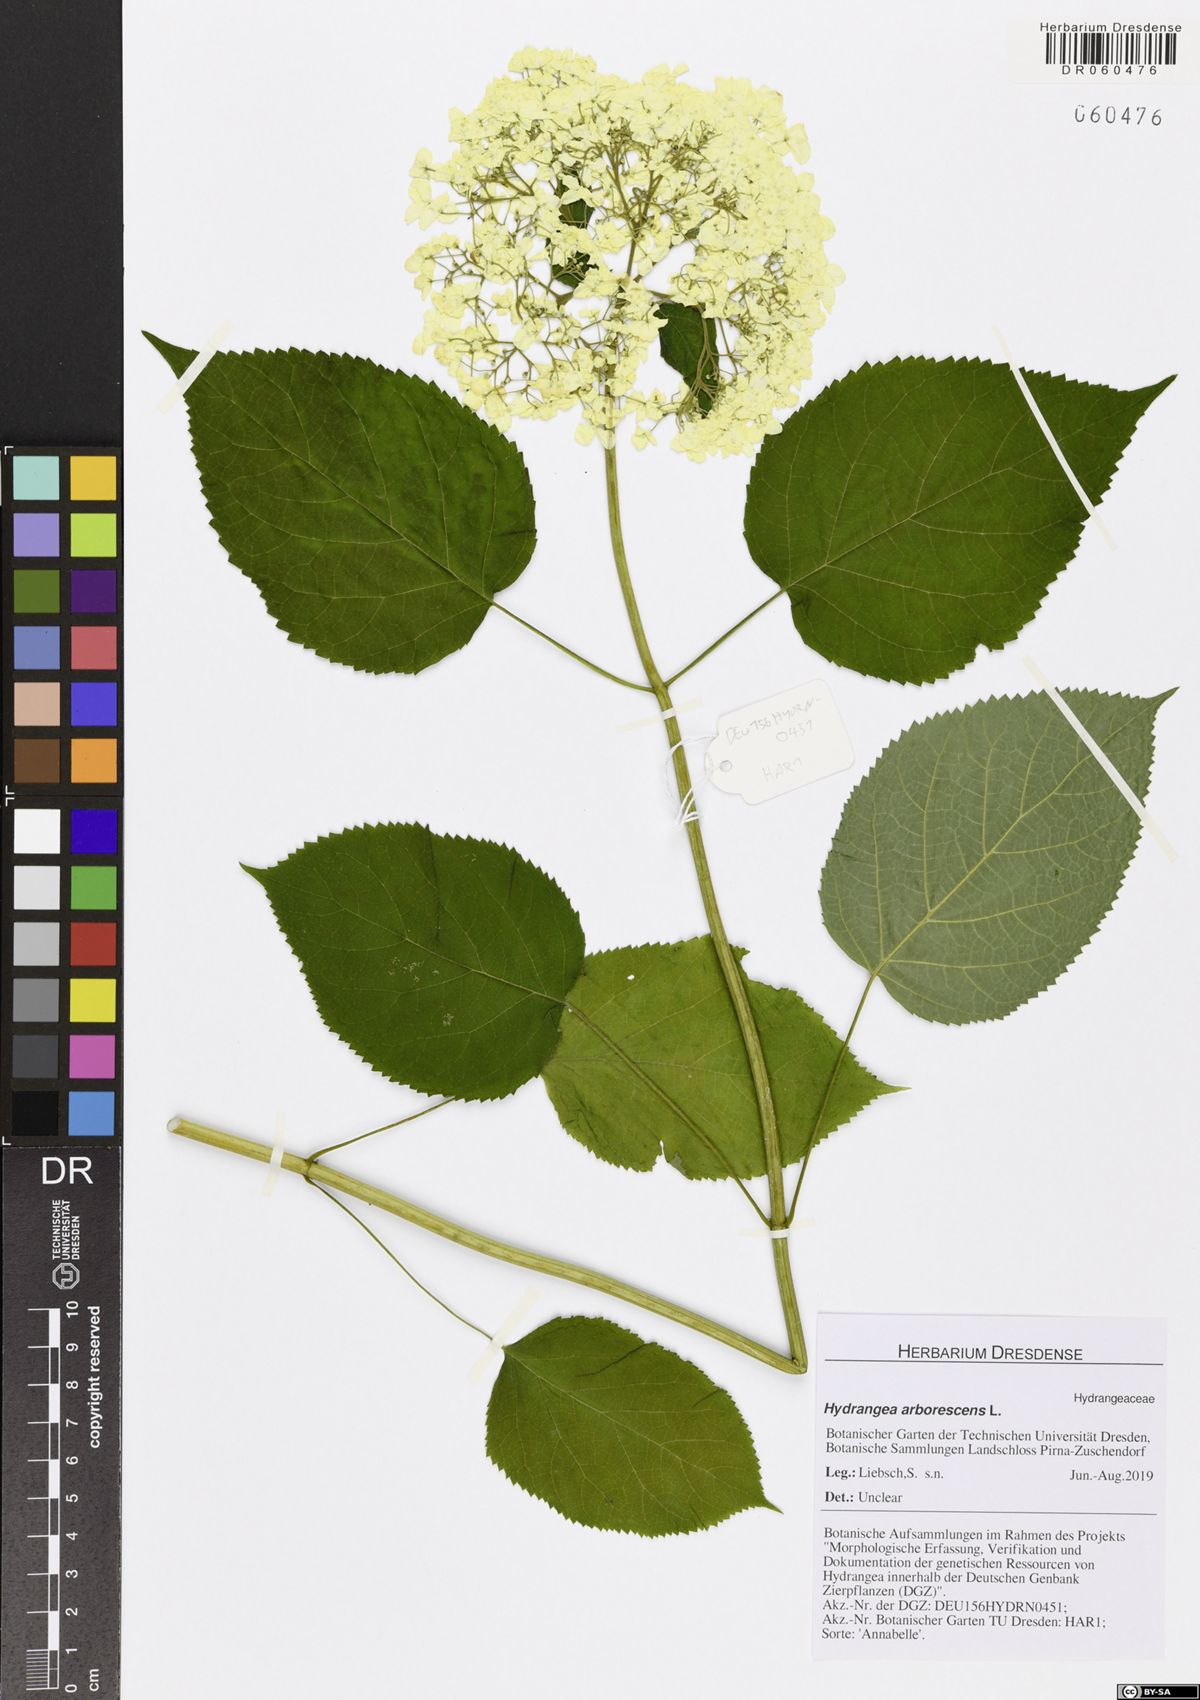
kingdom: Plantae
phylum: Tracheophyta
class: Magnoliopsida
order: Cornales
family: Hydrangeaceae
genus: Hydrangea
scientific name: Hydrangea arborescens
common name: Sevenbark
